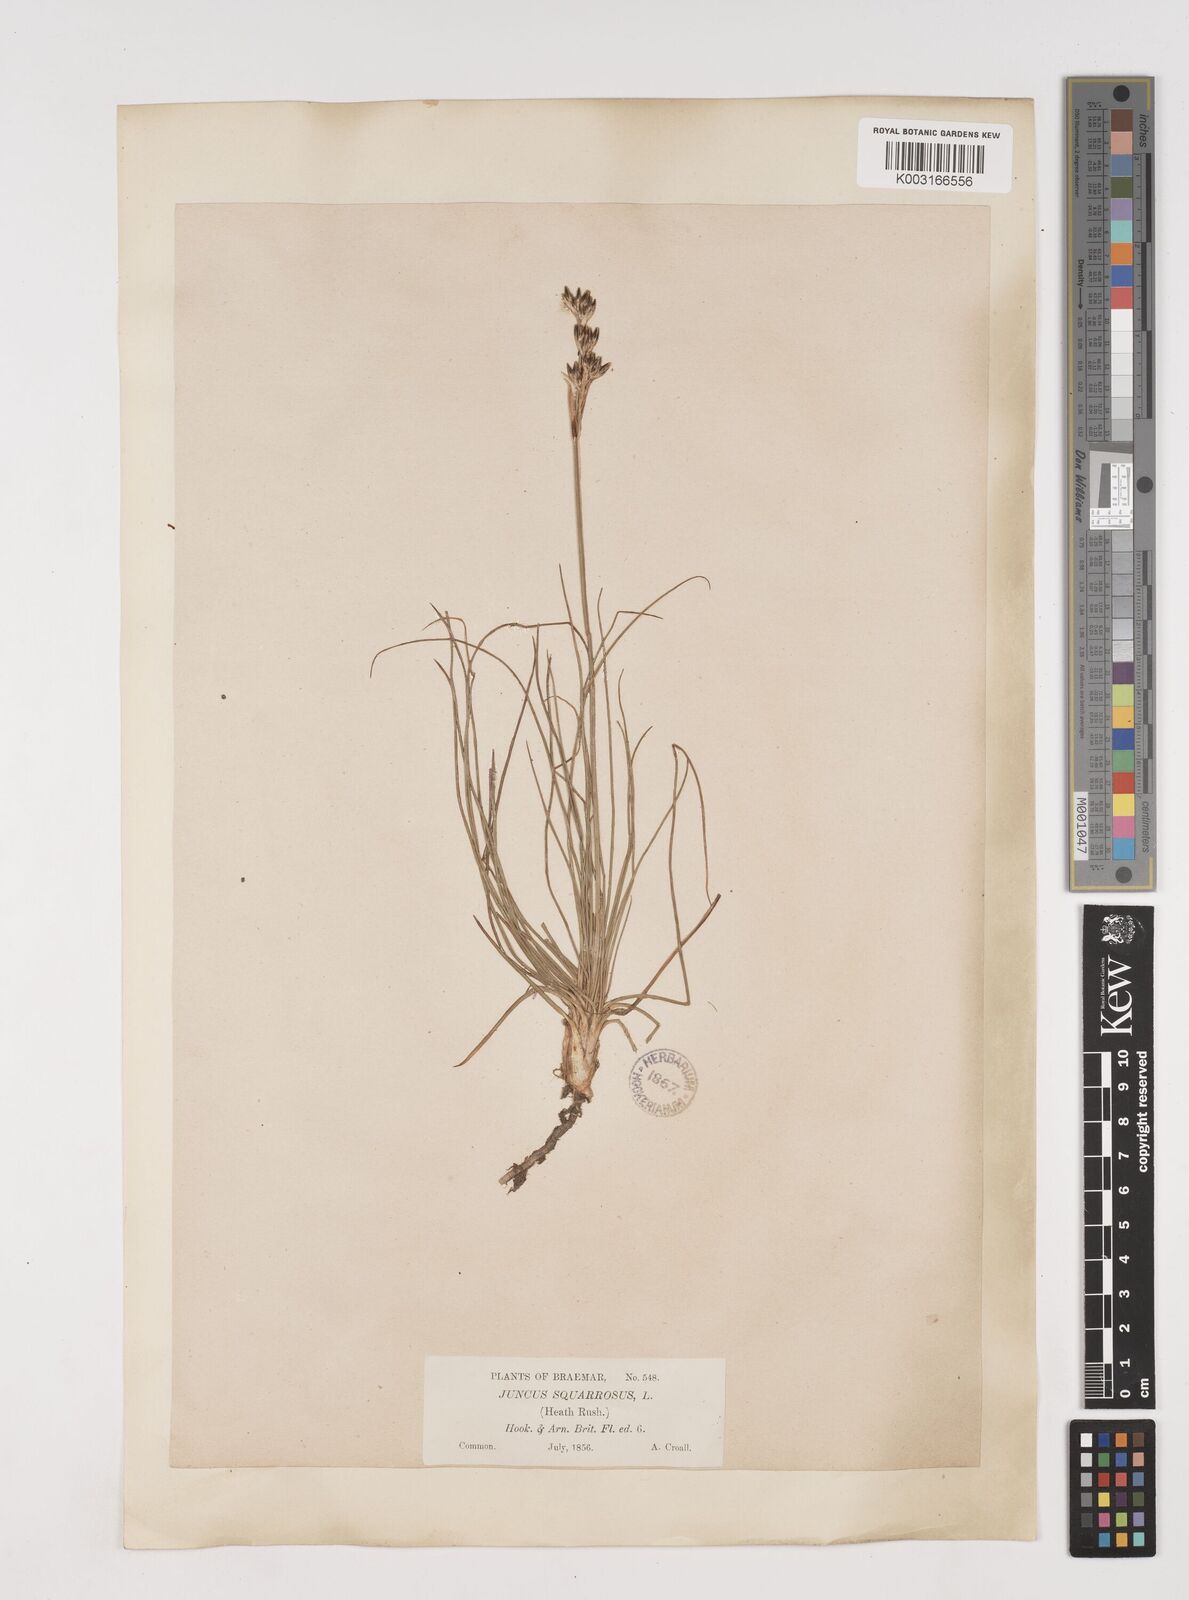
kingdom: Plantae
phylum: Tracheophyta
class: Liliopsida
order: Poales
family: Juncaceae
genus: Juncus
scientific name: Juncus squarrosus
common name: Heath rush
